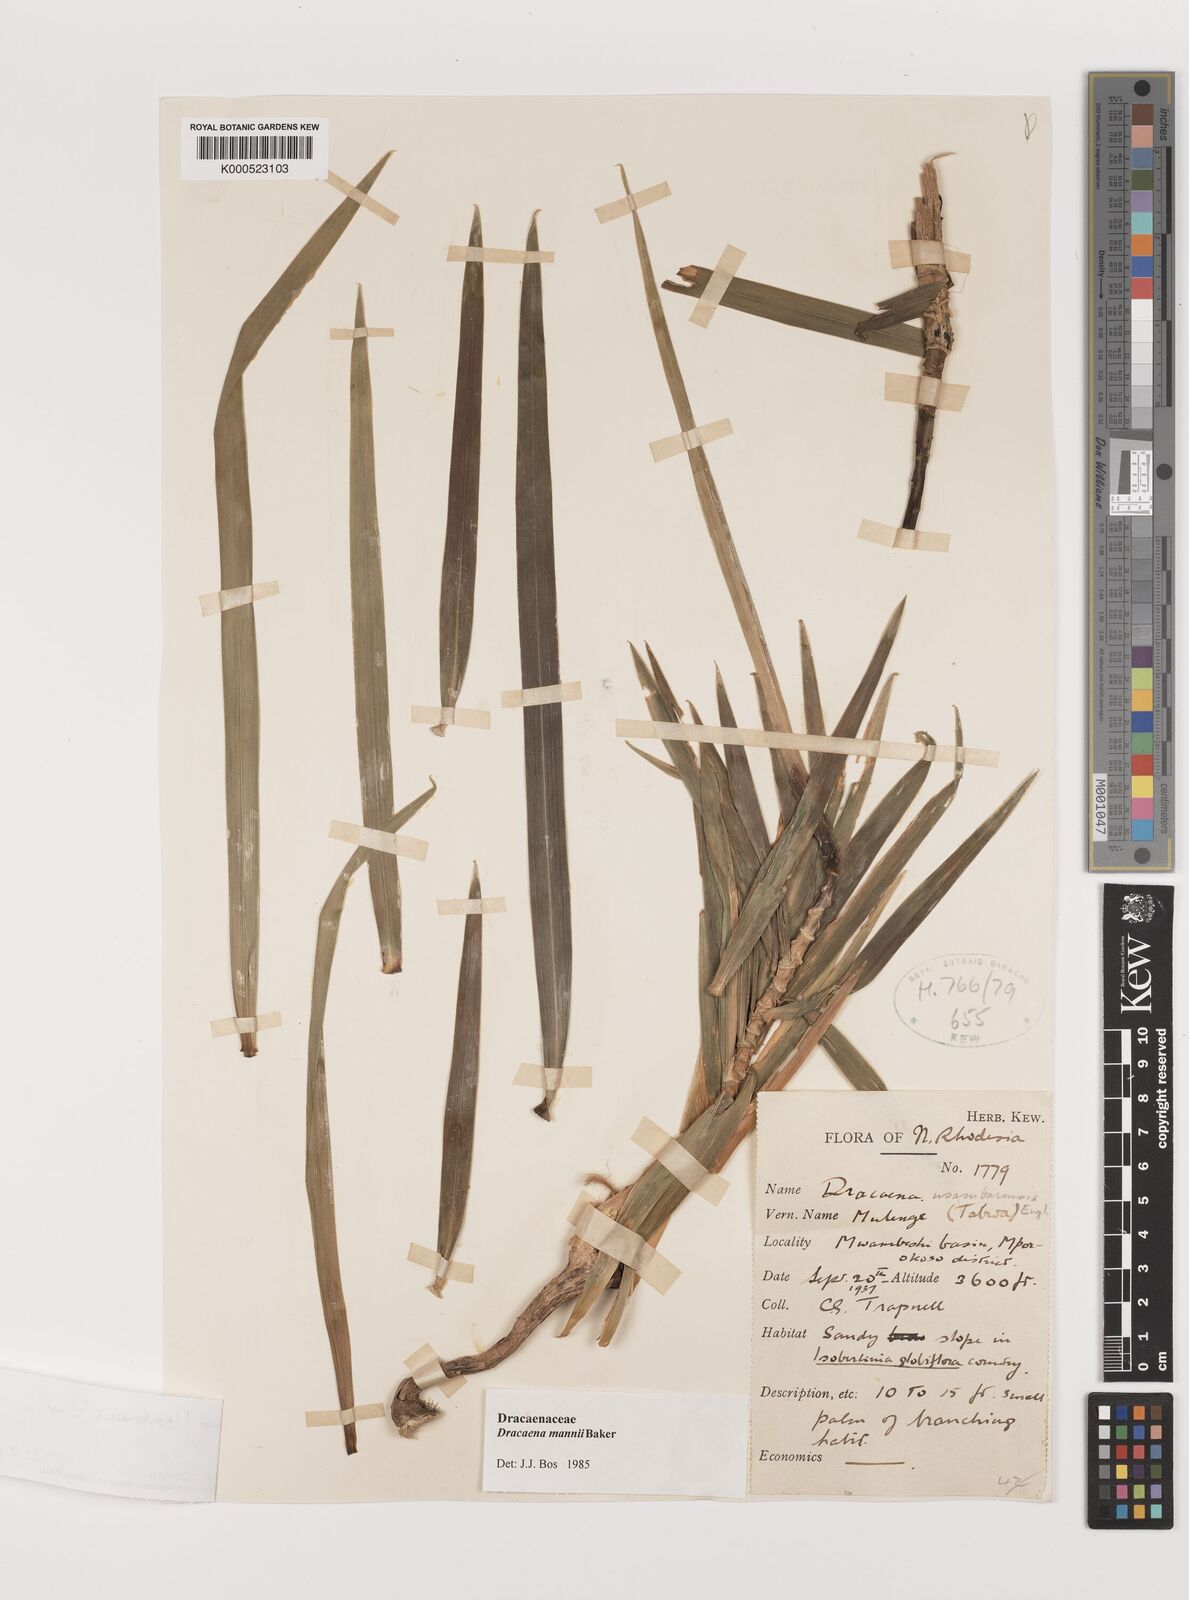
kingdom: Plantae
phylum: Tracheophyta
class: Liliopsida
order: Asparagales
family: Asparagaceae
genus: Dracaena
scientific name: Dracaena usambarensis
